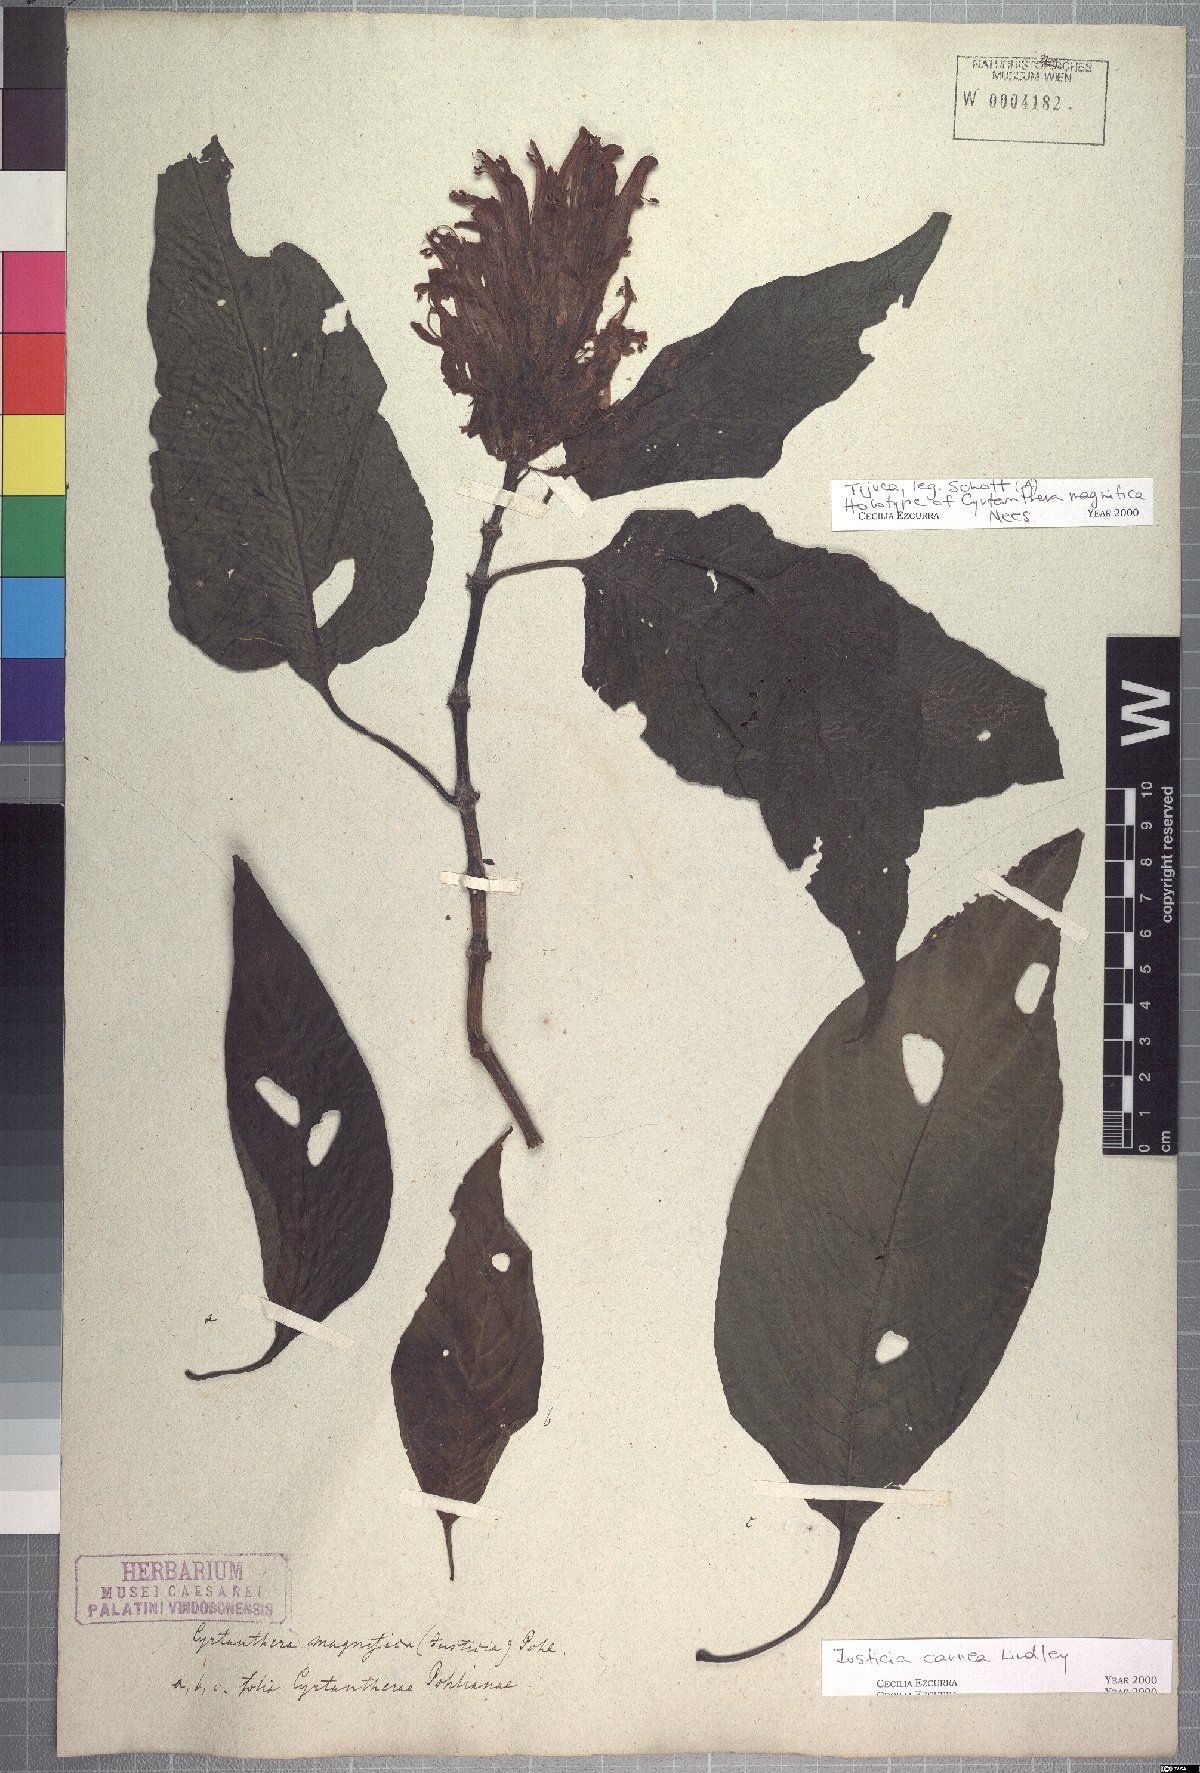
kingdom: Plantae
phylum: Tracheophyta
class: Magnoliopsida
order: Lamiales
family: Acanthaceae
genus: Justicia
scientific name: Justicia carnea
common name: Brazilian-plume
